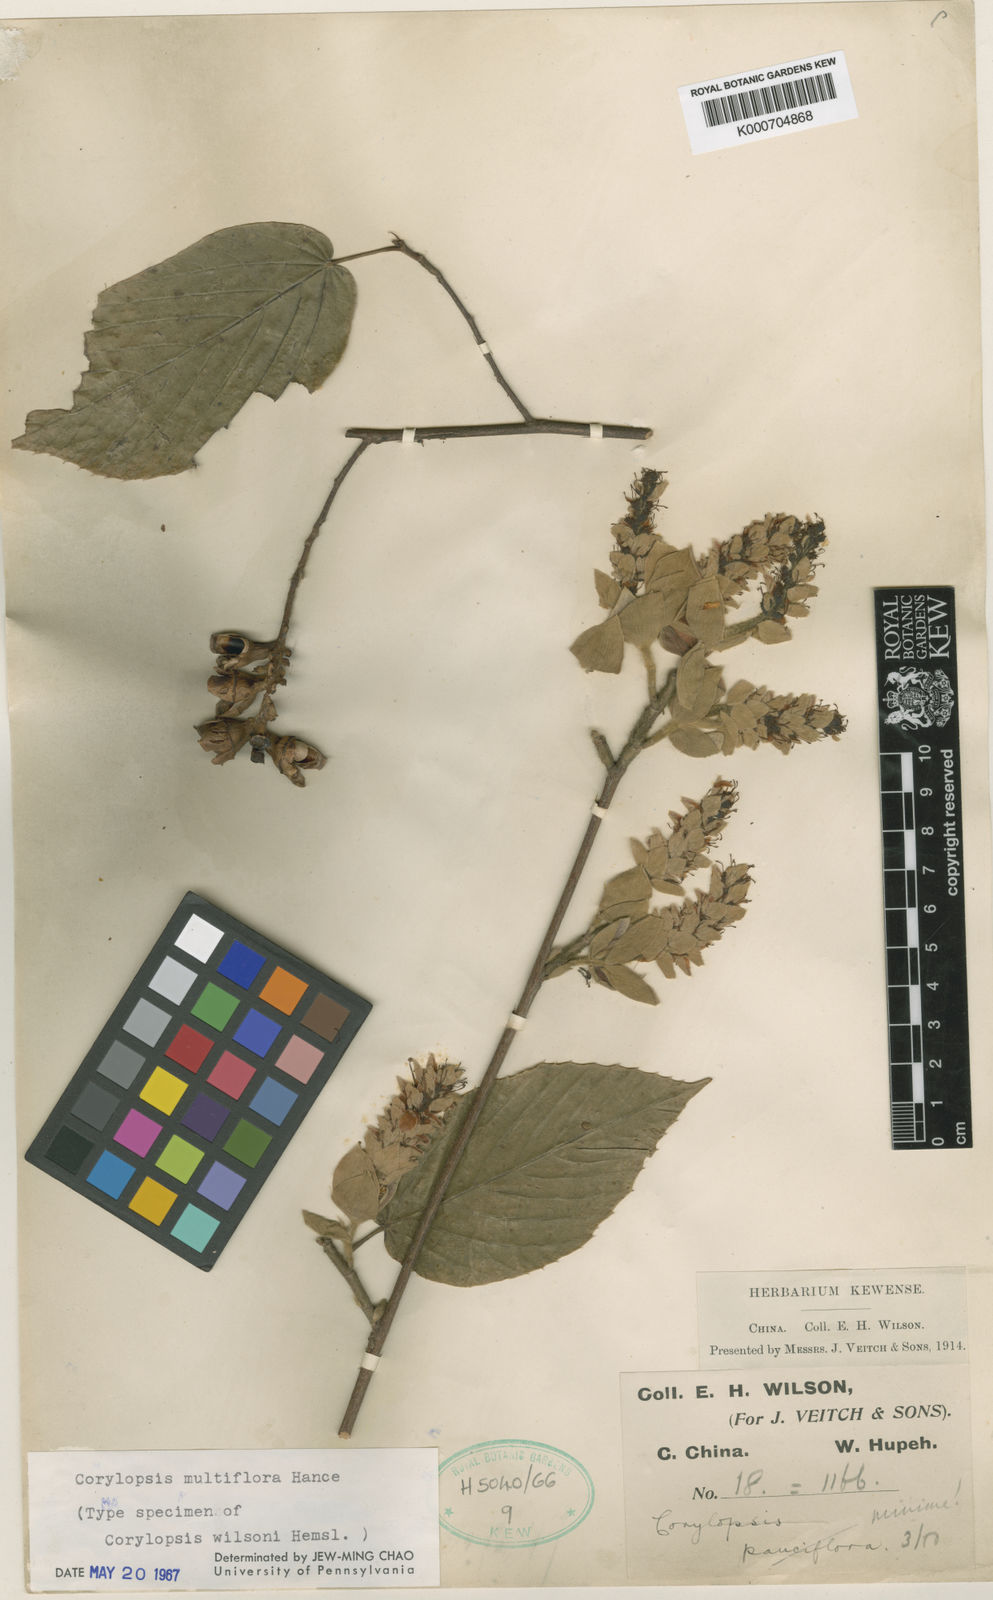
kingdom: Plantae
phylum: Tracheophyta
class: Magnoliopsida
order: Saxifragales
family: Hamamelidaceae
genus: Corylopsis
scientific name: Corylopsis multiflora
